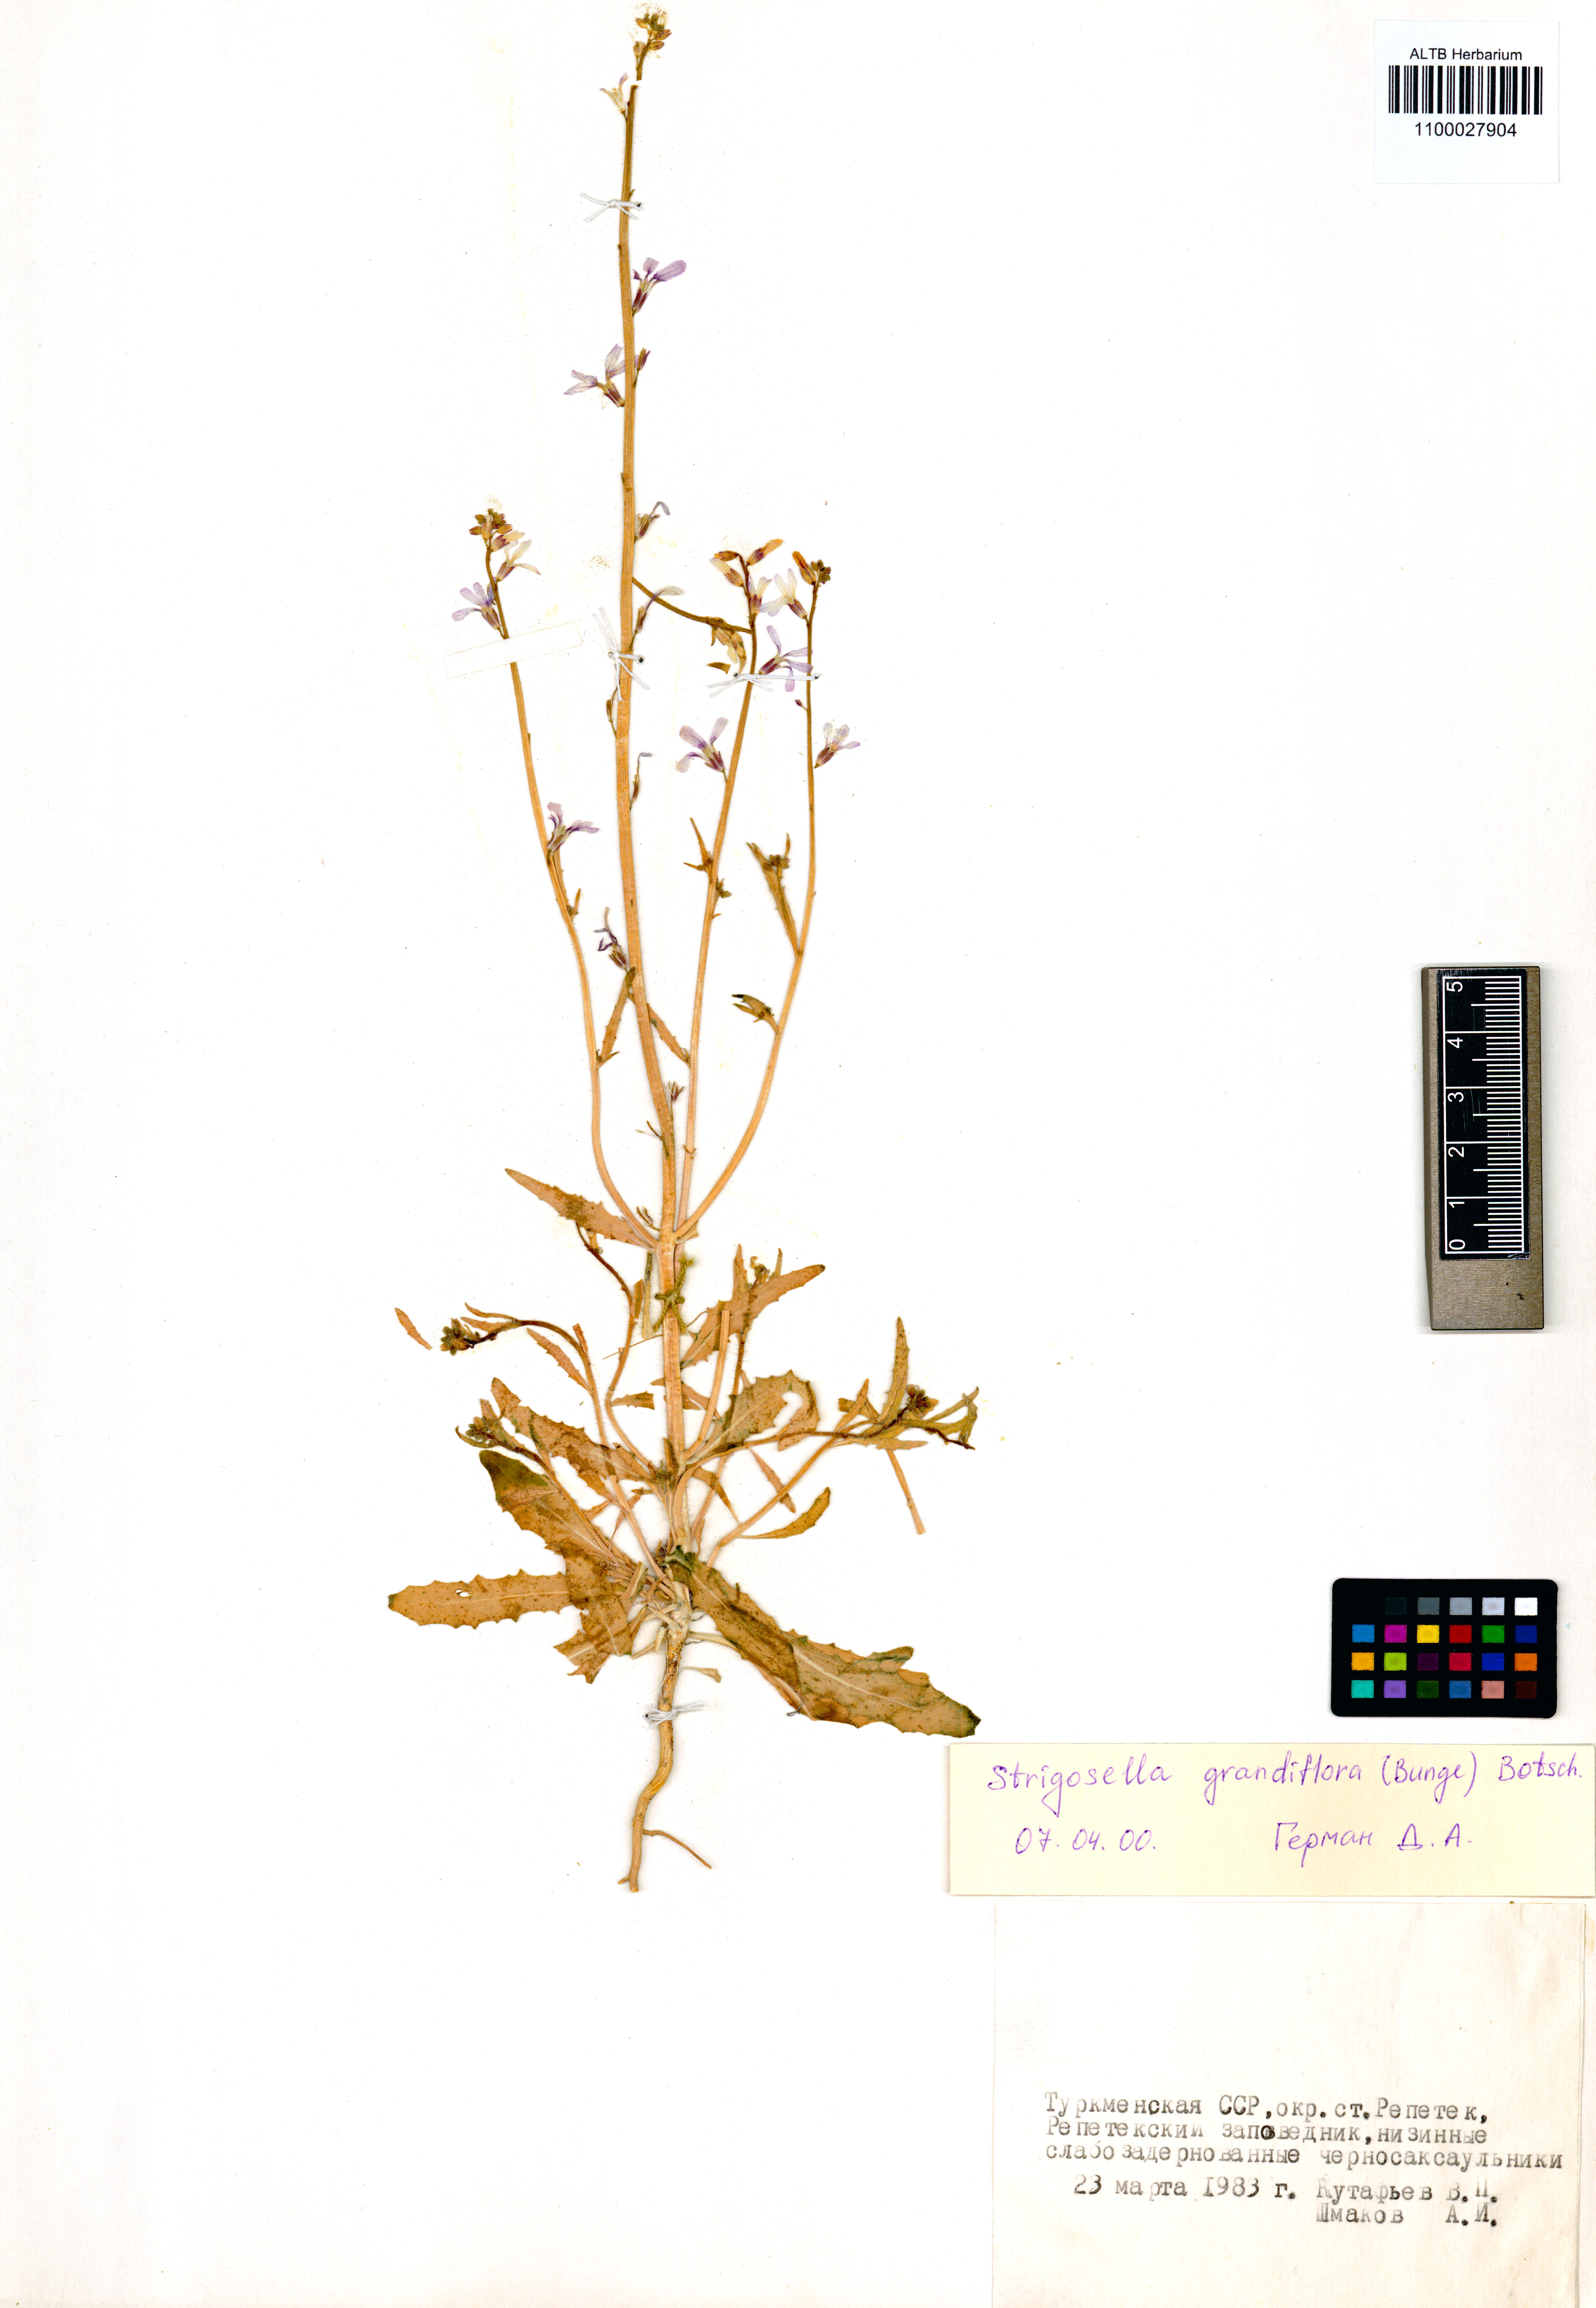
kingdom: Plantae
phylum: Tracheophyta
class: Magnoliopsida
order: Brassicales
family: Brassicaceae
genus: Strigosella
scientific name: Strigosella grandiflora
